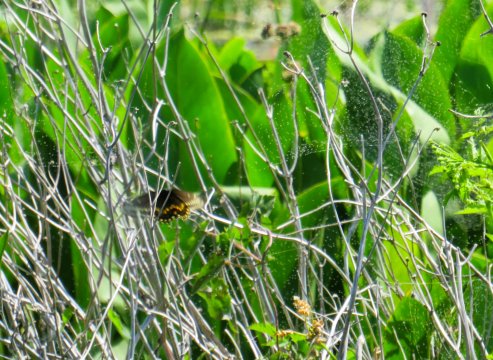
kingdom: Animalia
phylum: Arthropoda
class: Insecta
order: Lepidoptera
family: Papilionidae
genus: Papilio
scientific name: Papilio polyxenes
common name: Black Swallowtail
